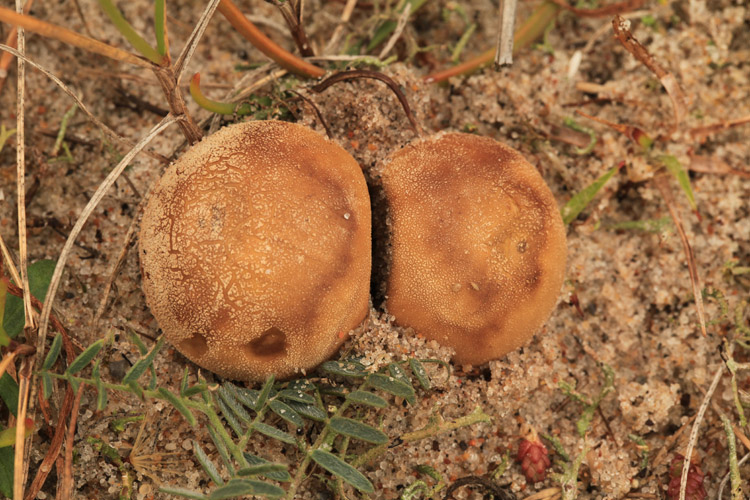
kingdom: Fungi
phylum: Basidiomycota
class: Agaricomycetes
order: Agaricales
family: Lycoperdaceae
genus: Lycoperdon
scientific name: Lycoperdon lividum
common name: mark-støvbold
